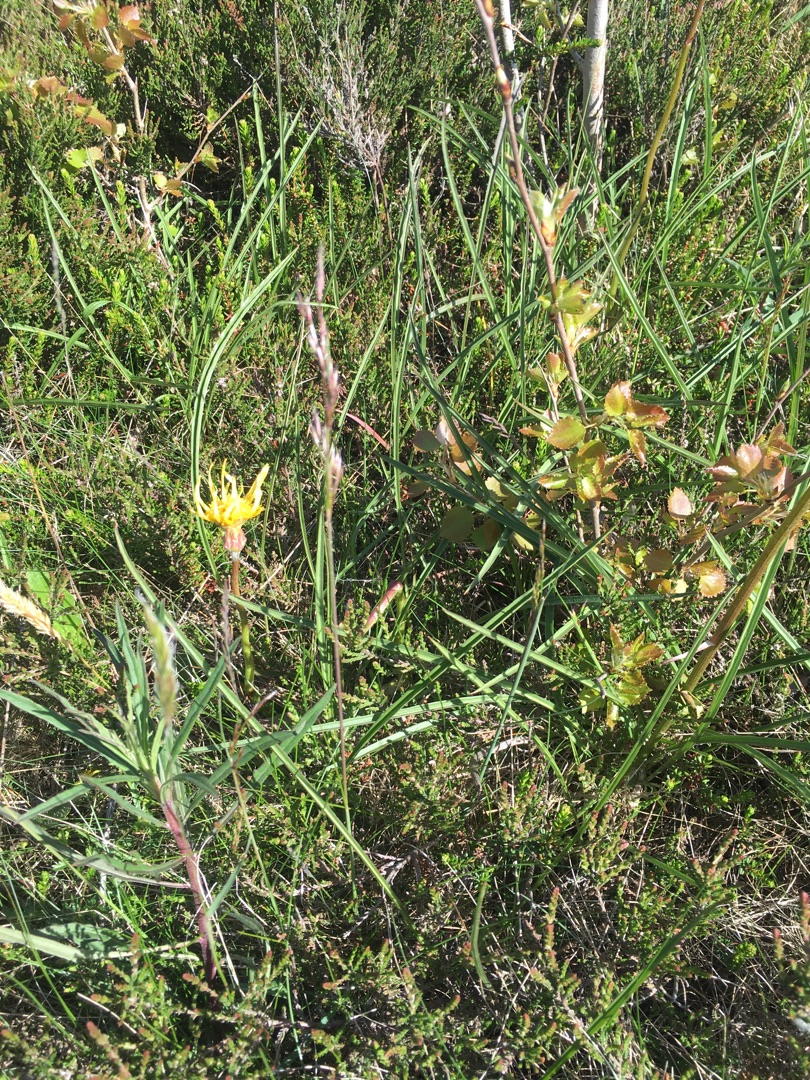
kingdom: Plantae
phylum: Tracheophyta
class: Magnoliopsida
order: Asterales
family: Asteraceae
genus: Scorzonera
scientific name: Scorzonera humilis
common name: Lav skorsoner
